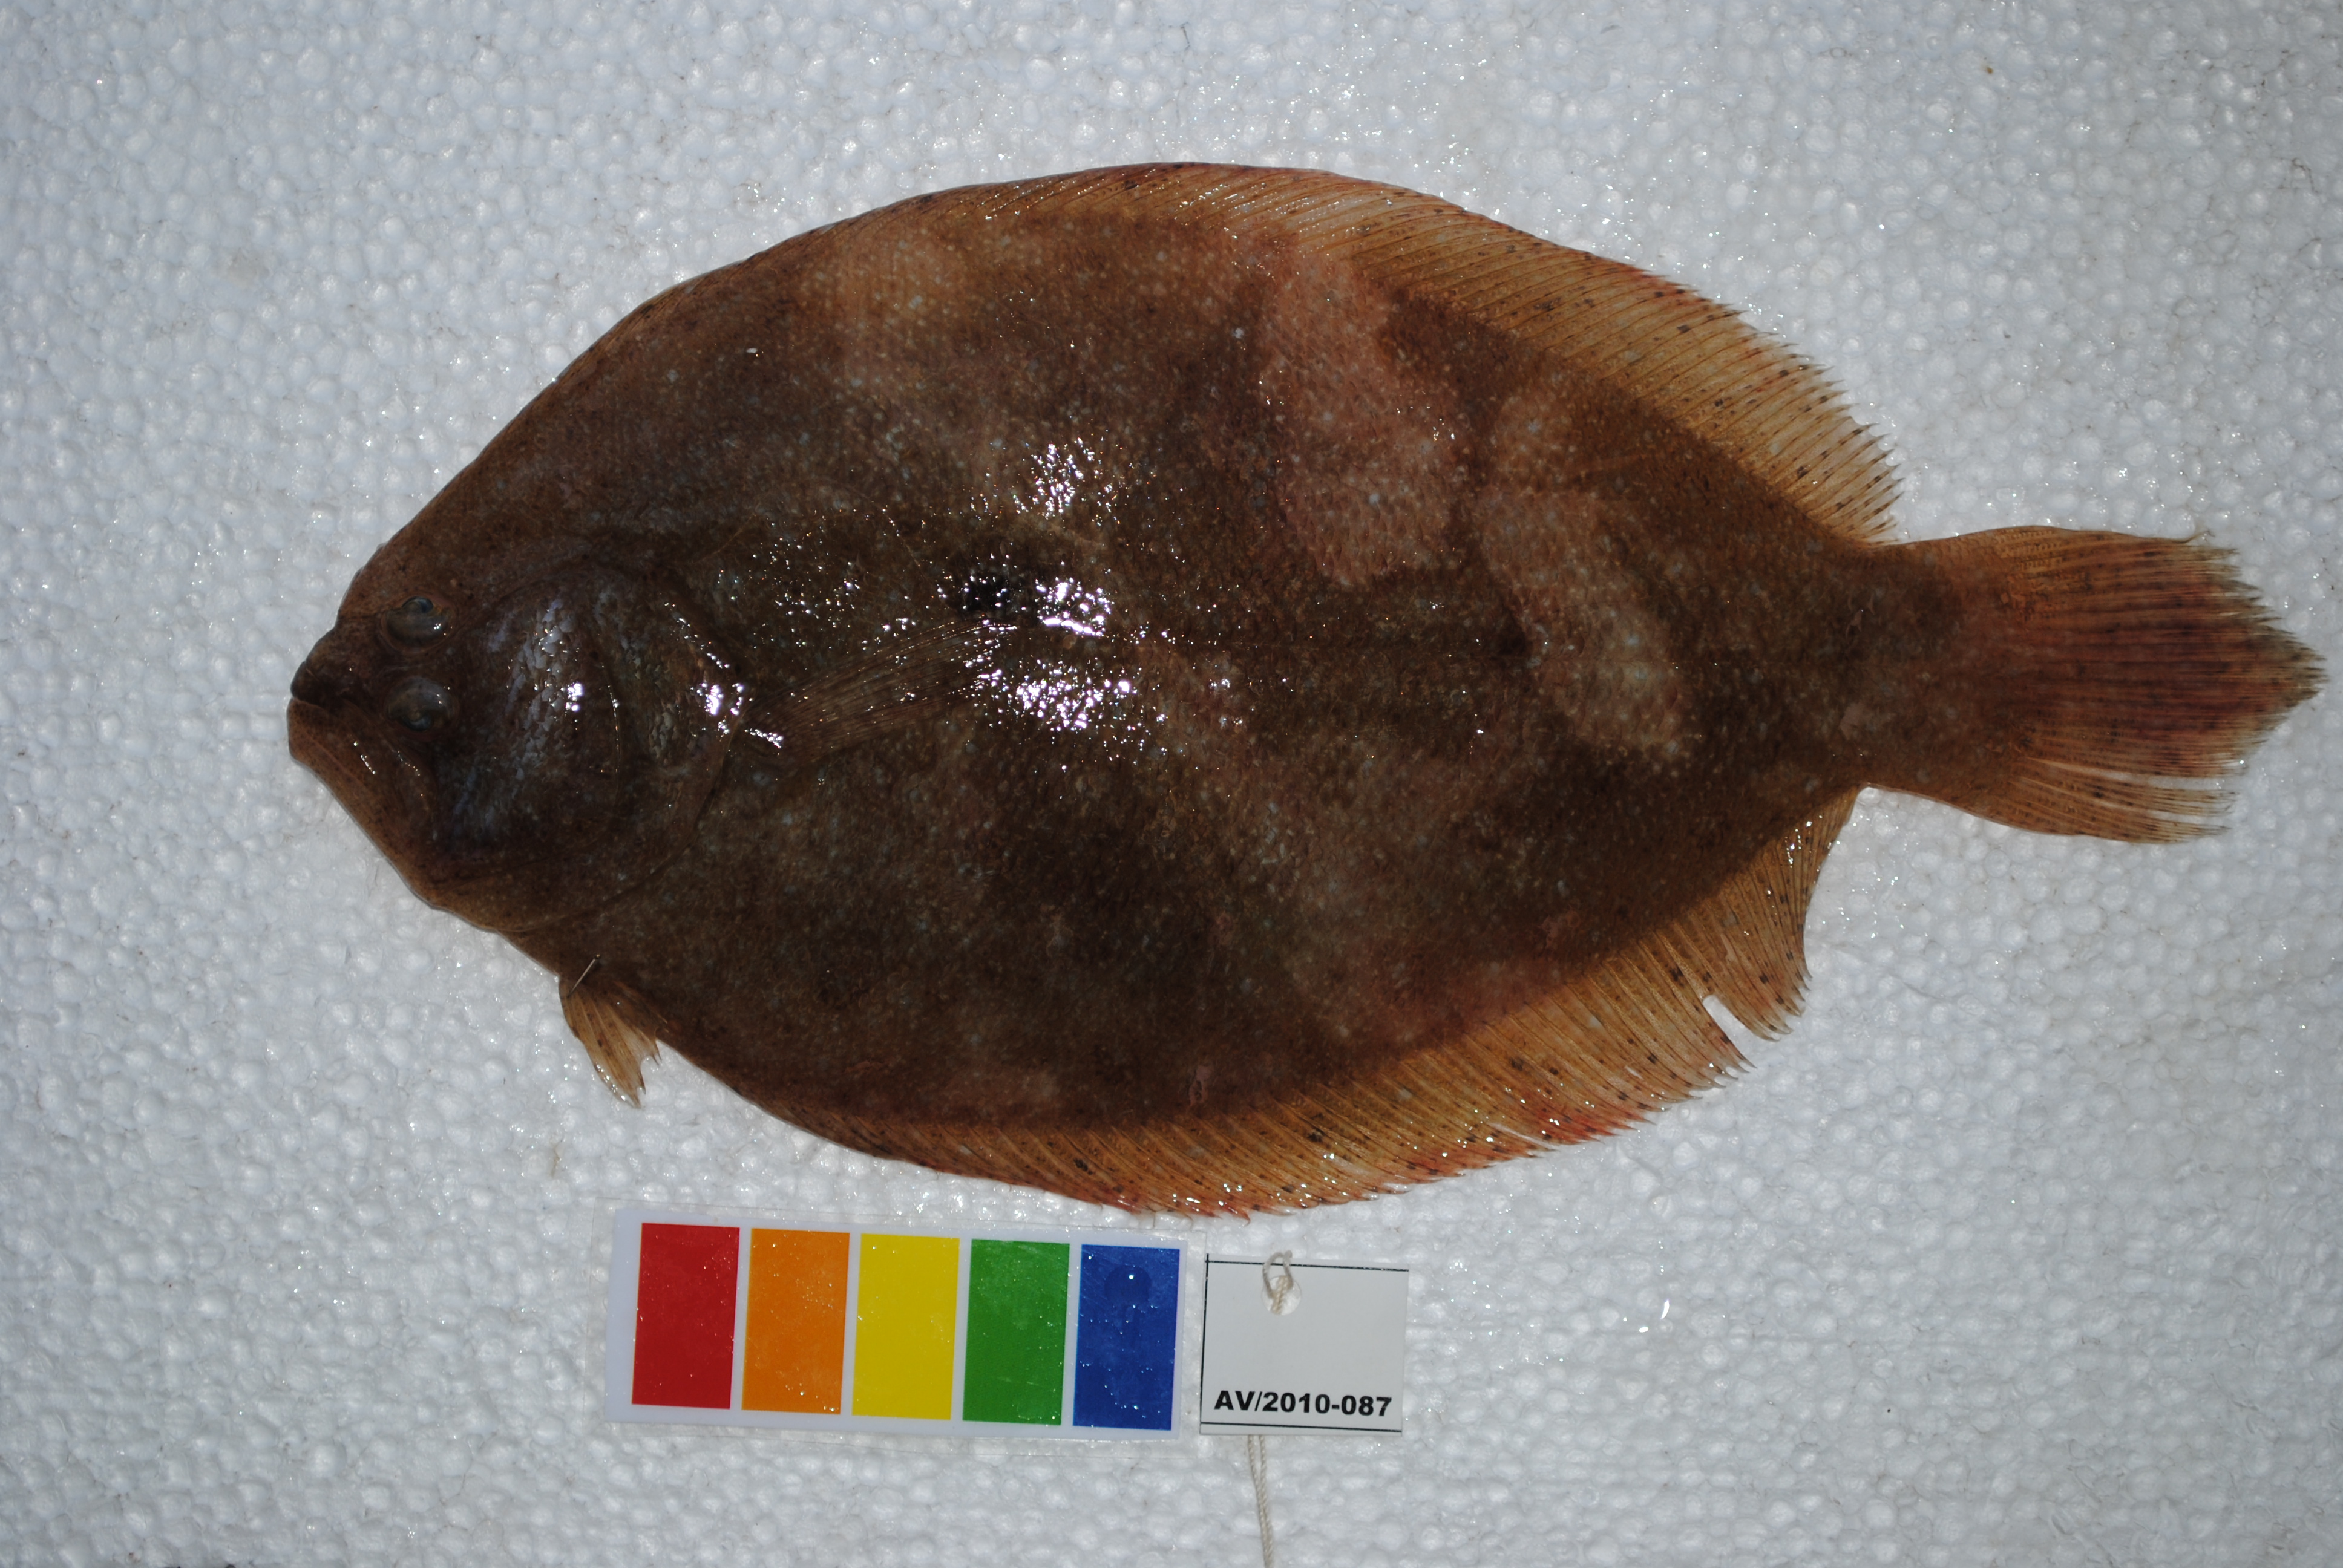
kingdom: Animalia
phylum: Chordata
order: Pleuronectiformes
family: Paralichthyidae
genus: Pseudorhombus
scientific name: Pseudorhombus arsius
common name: Largetooth flounder
